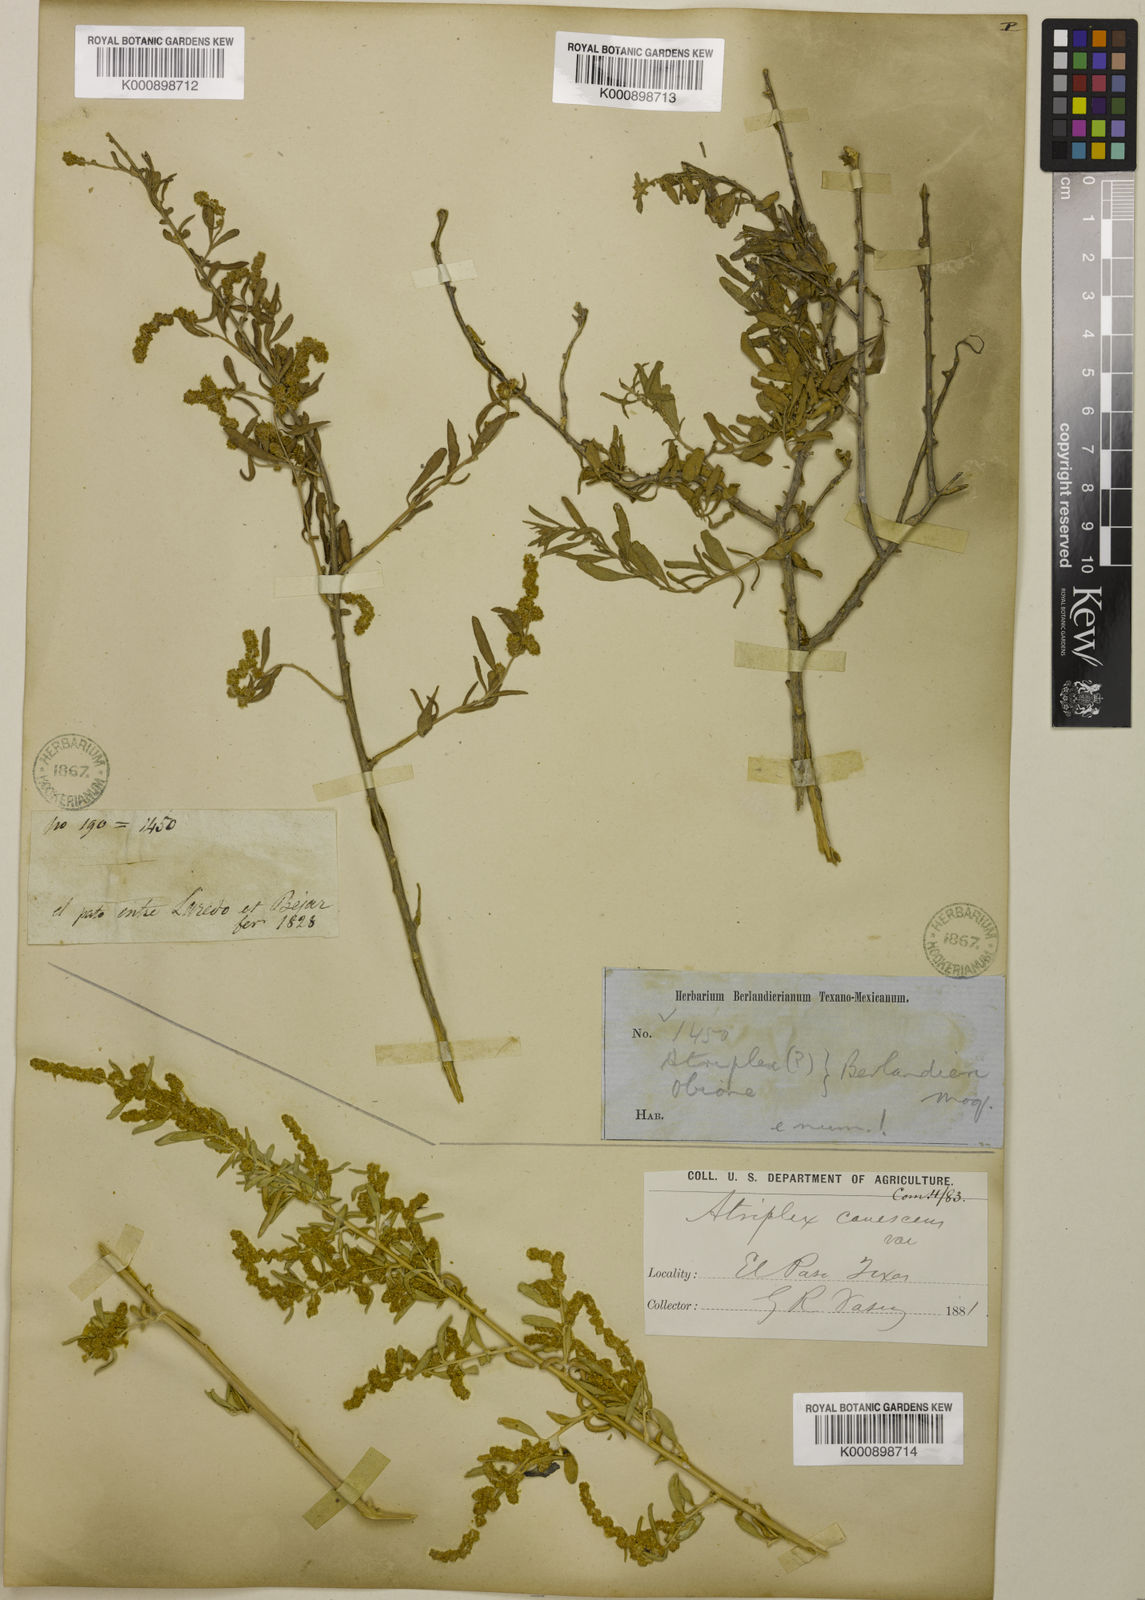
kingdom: Plantae
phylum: Tracheophyta
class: Magnoliopsida
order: Caryophyllales
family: Amaranthaceae
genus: Atriplex
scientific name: Atriplex canescens
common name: Four-wing saltbush
